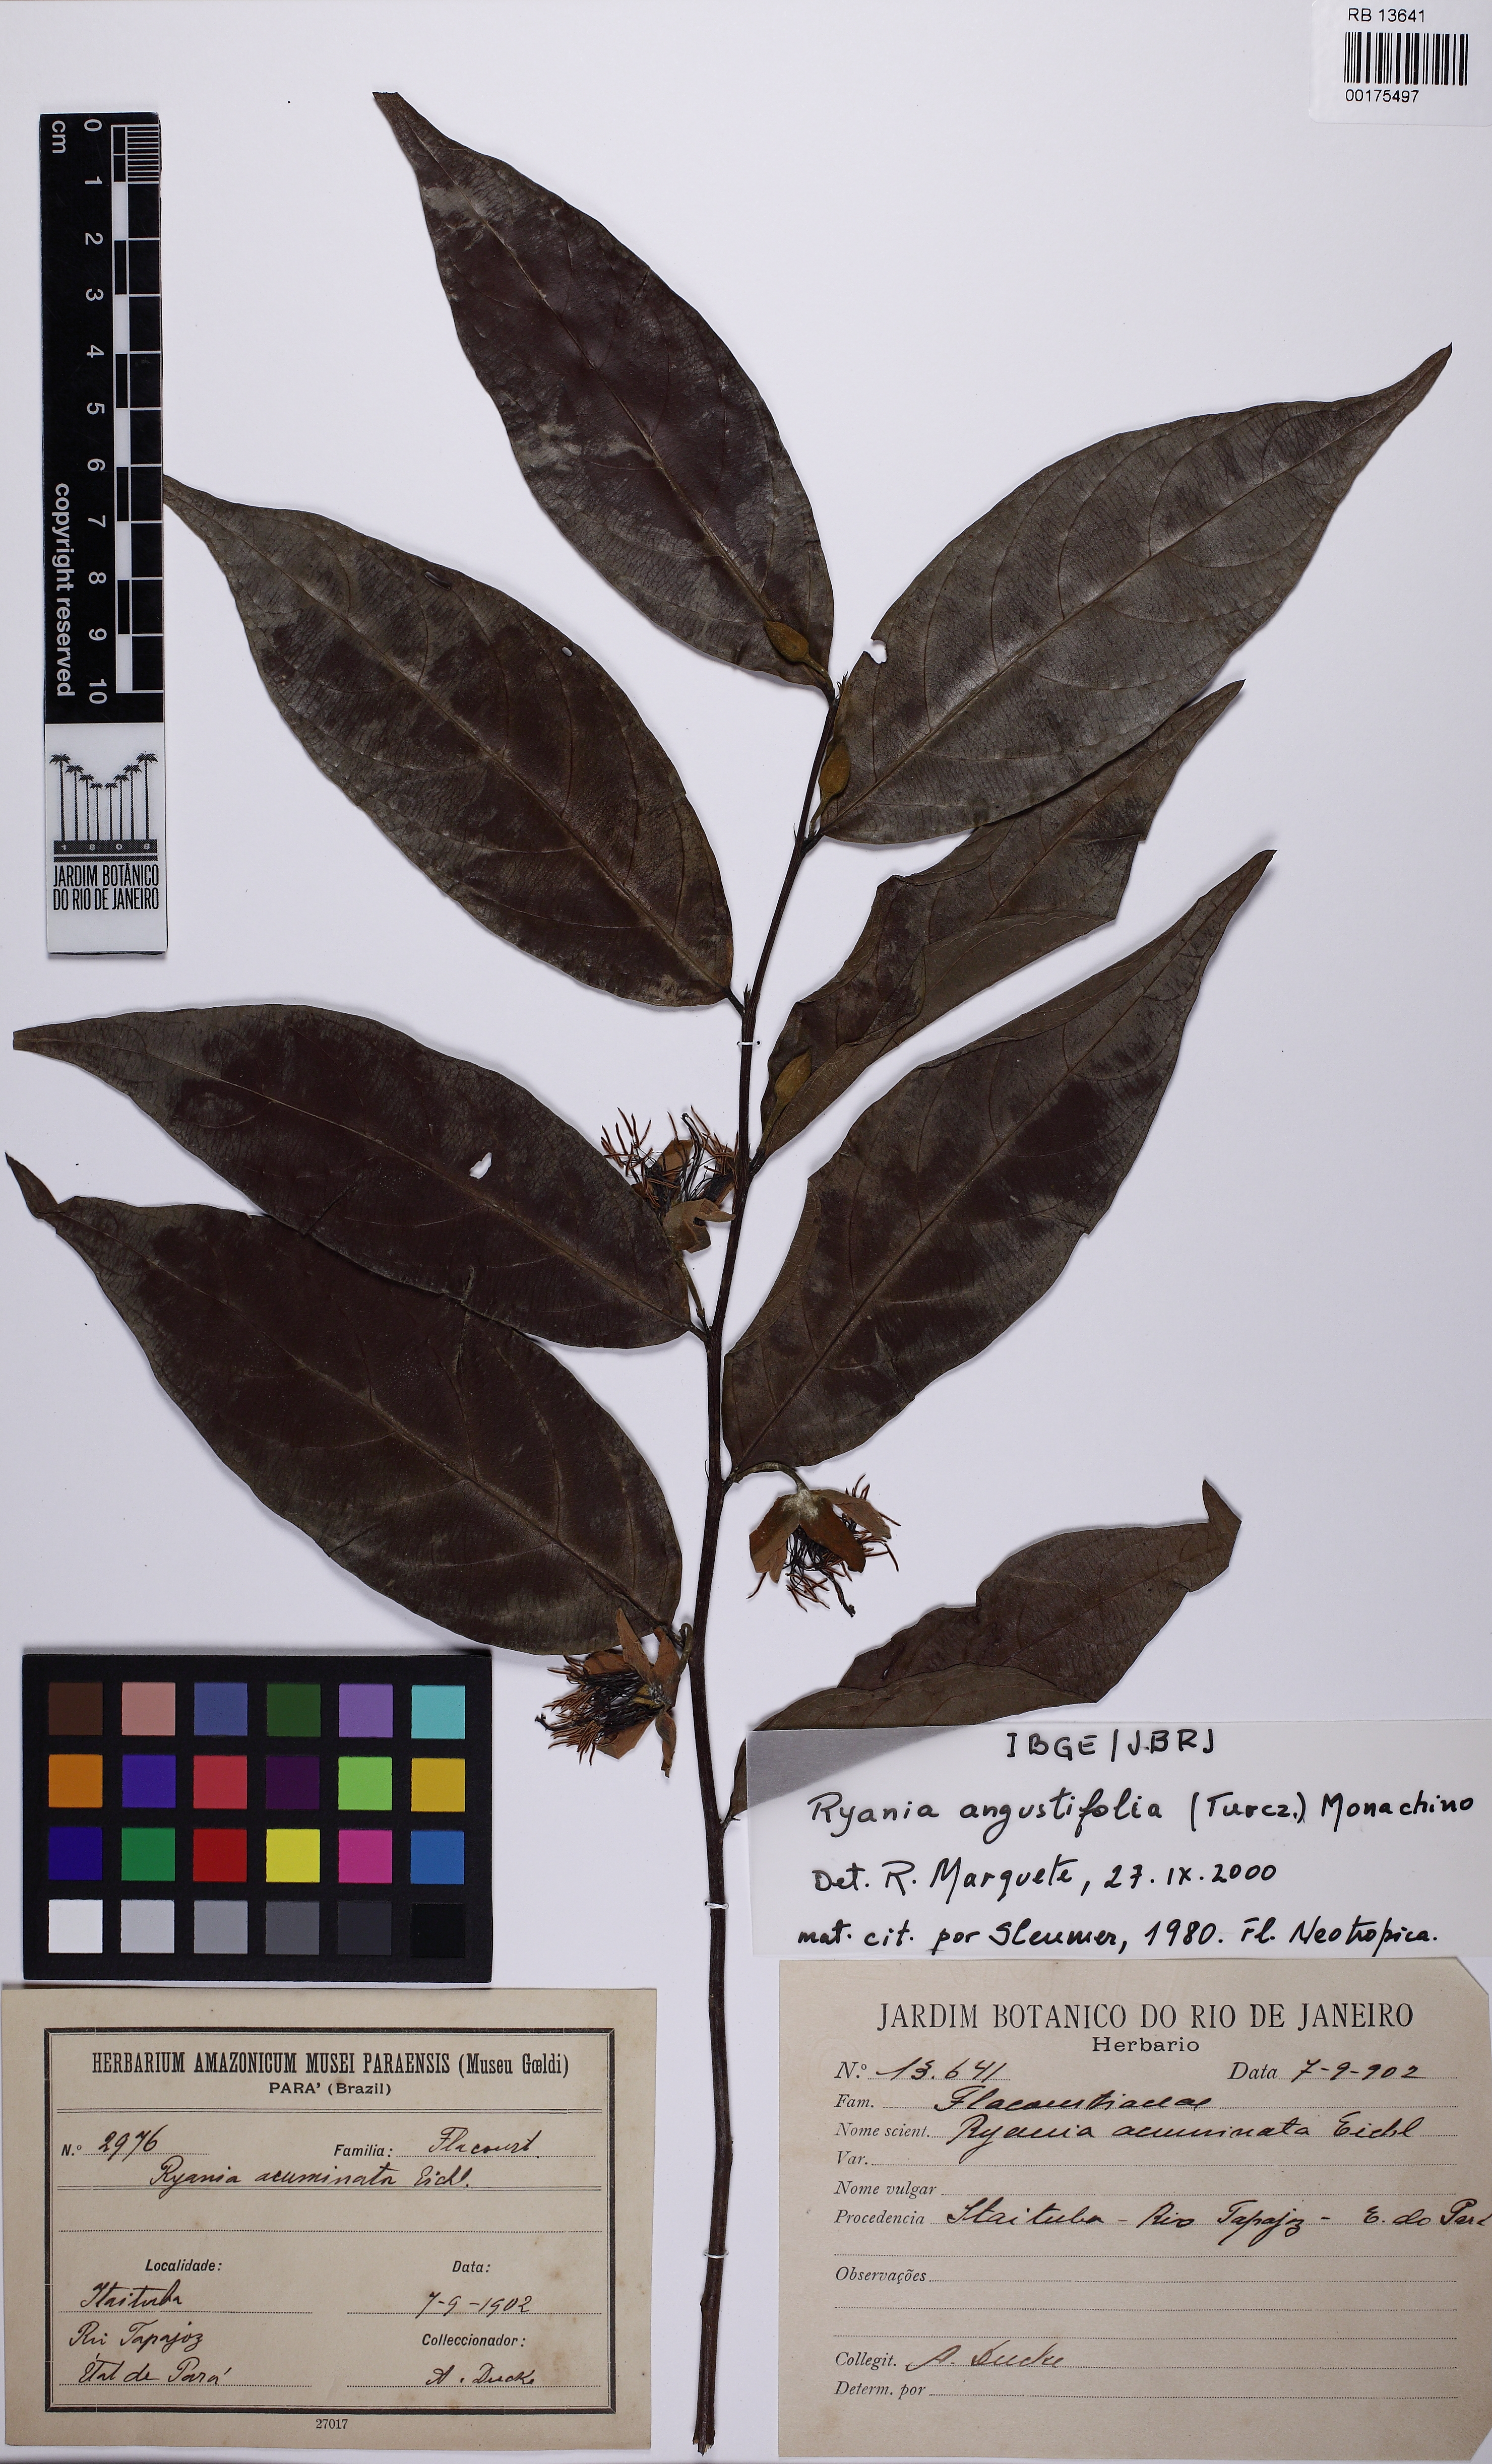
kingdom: Plantae
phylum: Tracheophyta
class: Magnoliopsida
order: Malpighiales
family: Salicaceae
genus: Ryania
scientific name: Ryania angustifolia
